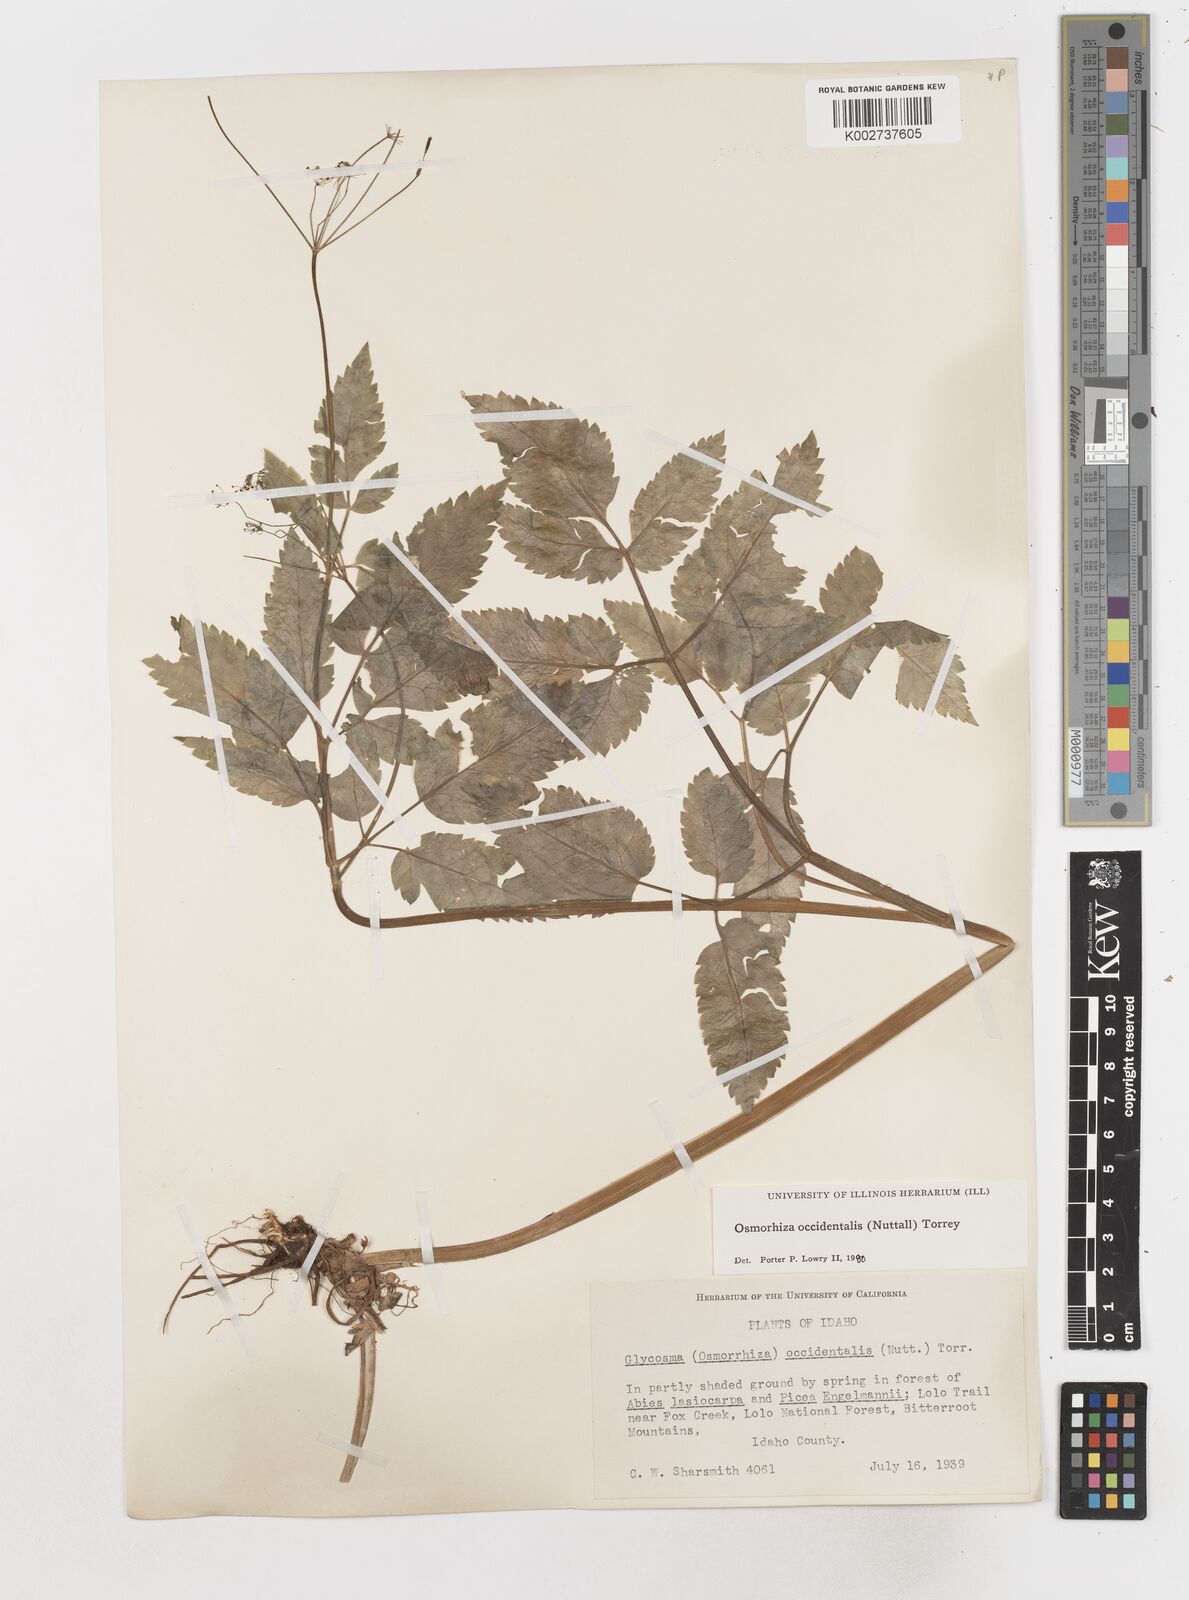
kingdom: Plantae
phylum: Tracheophyta
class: Magnoliopsida
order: Apiales
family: Apiaceae
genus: Osmorhiza
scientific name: Osmorhiza occidentalis
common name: Western sweet cicely
